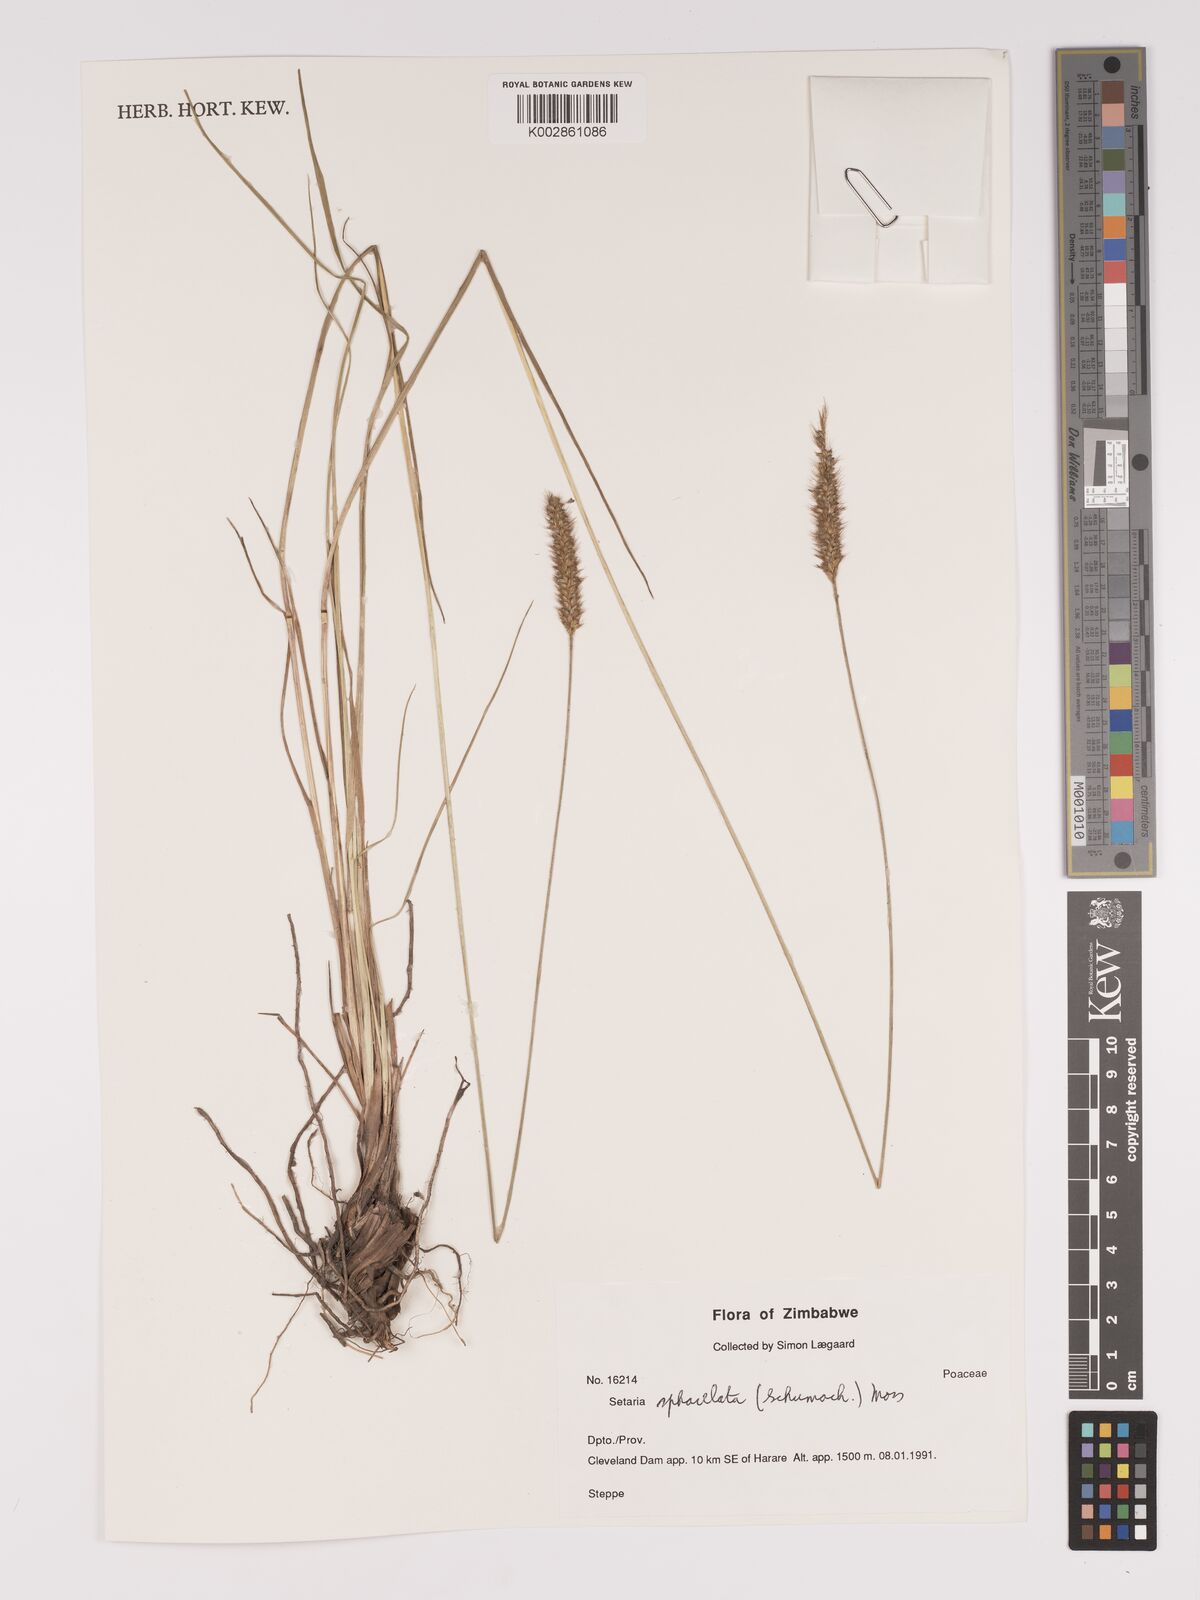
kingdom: Plantae
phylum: Tracheophyta
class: Liliopsida
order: Poales
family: Poaceae
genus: Setaria
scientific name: Setaria sphacelata
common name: African bristlegrass
